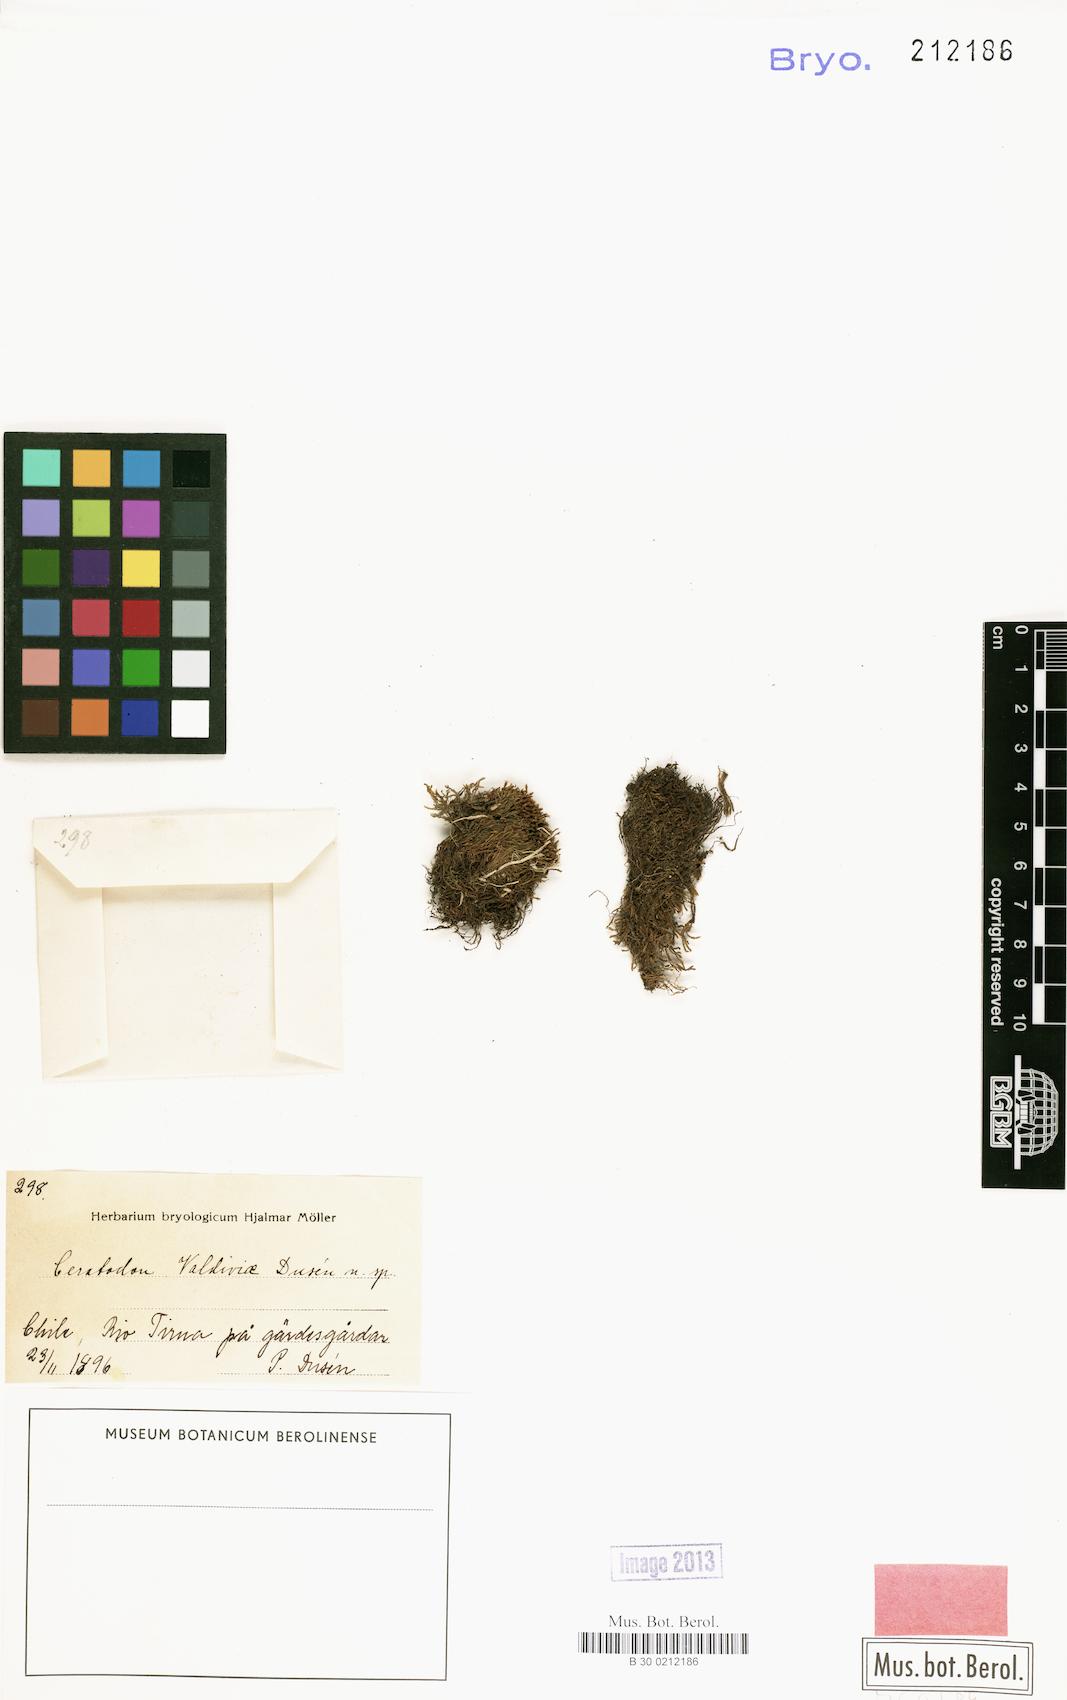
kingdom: Plantae
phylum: Bryophyta
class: Bryopsida
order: Dicranales
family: Ditrichaceae
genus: Ceratodon
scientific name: Ceratodon purpureus
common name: Redshank
